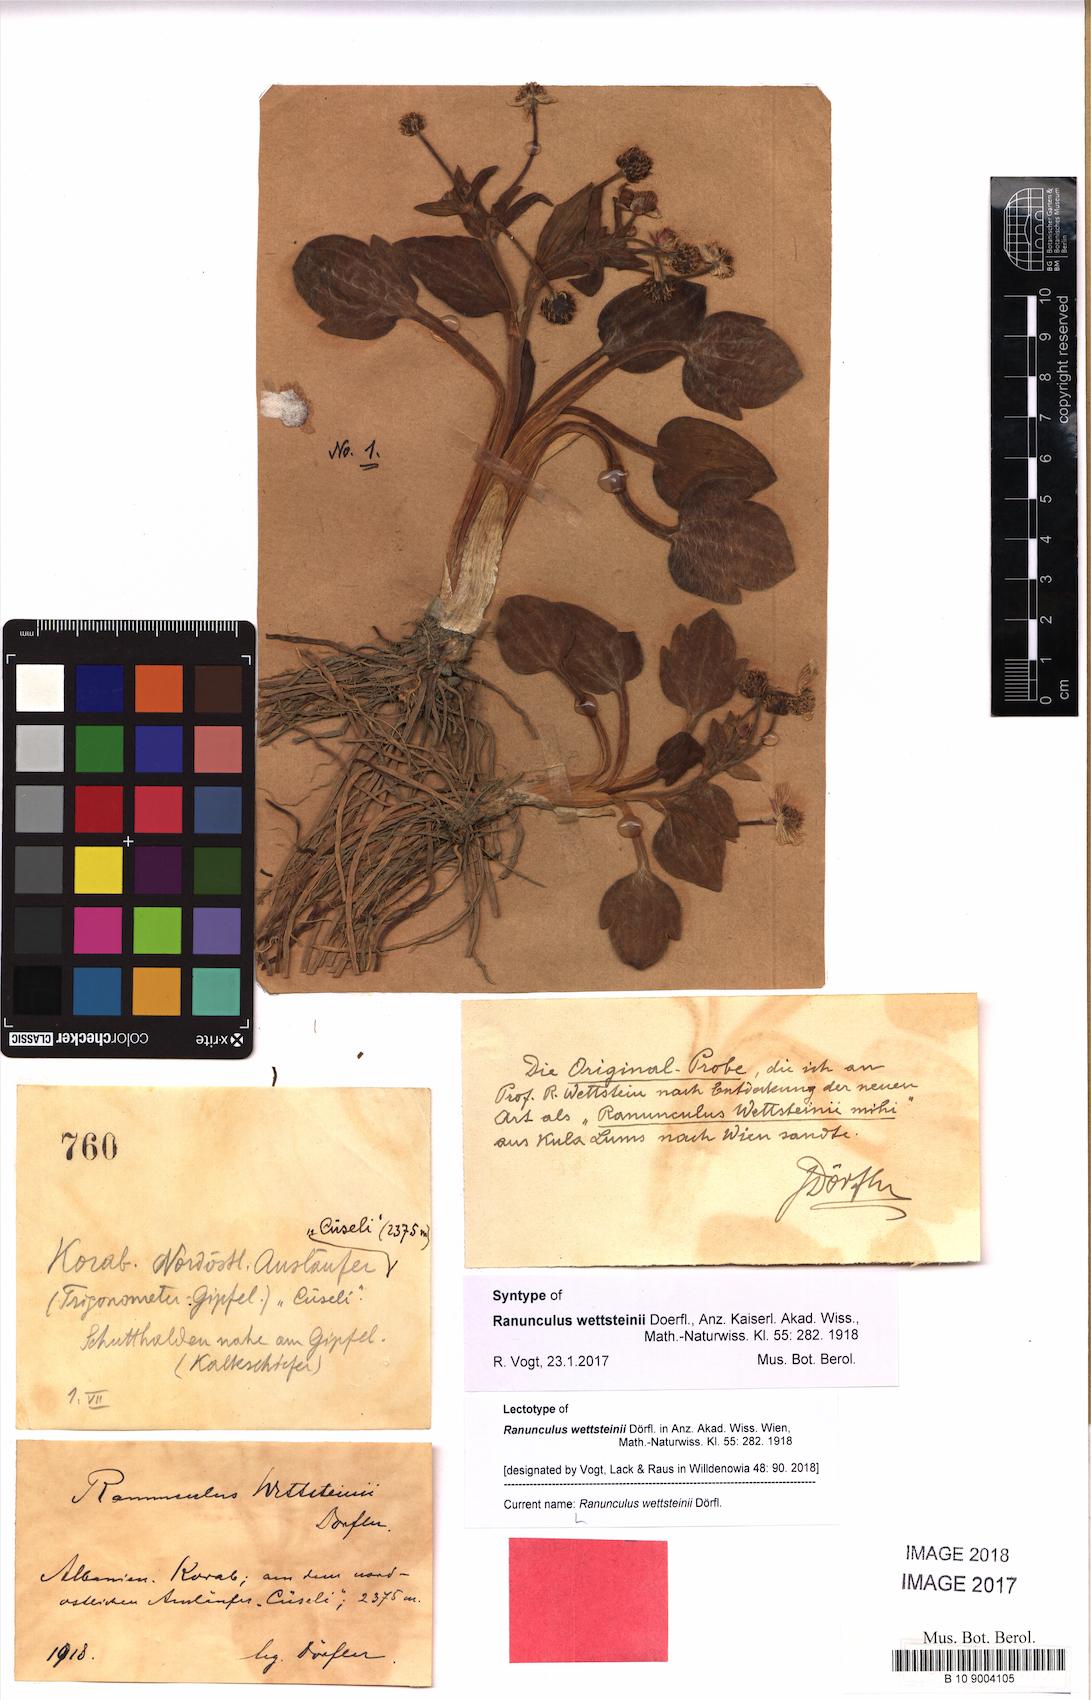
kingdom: Plantae
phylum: Tracheophyta
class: Magnoliopsida
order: Ranunculales
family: Ranunculaceae
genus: Ranunculus
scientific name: Ranunculus wettsteinii
